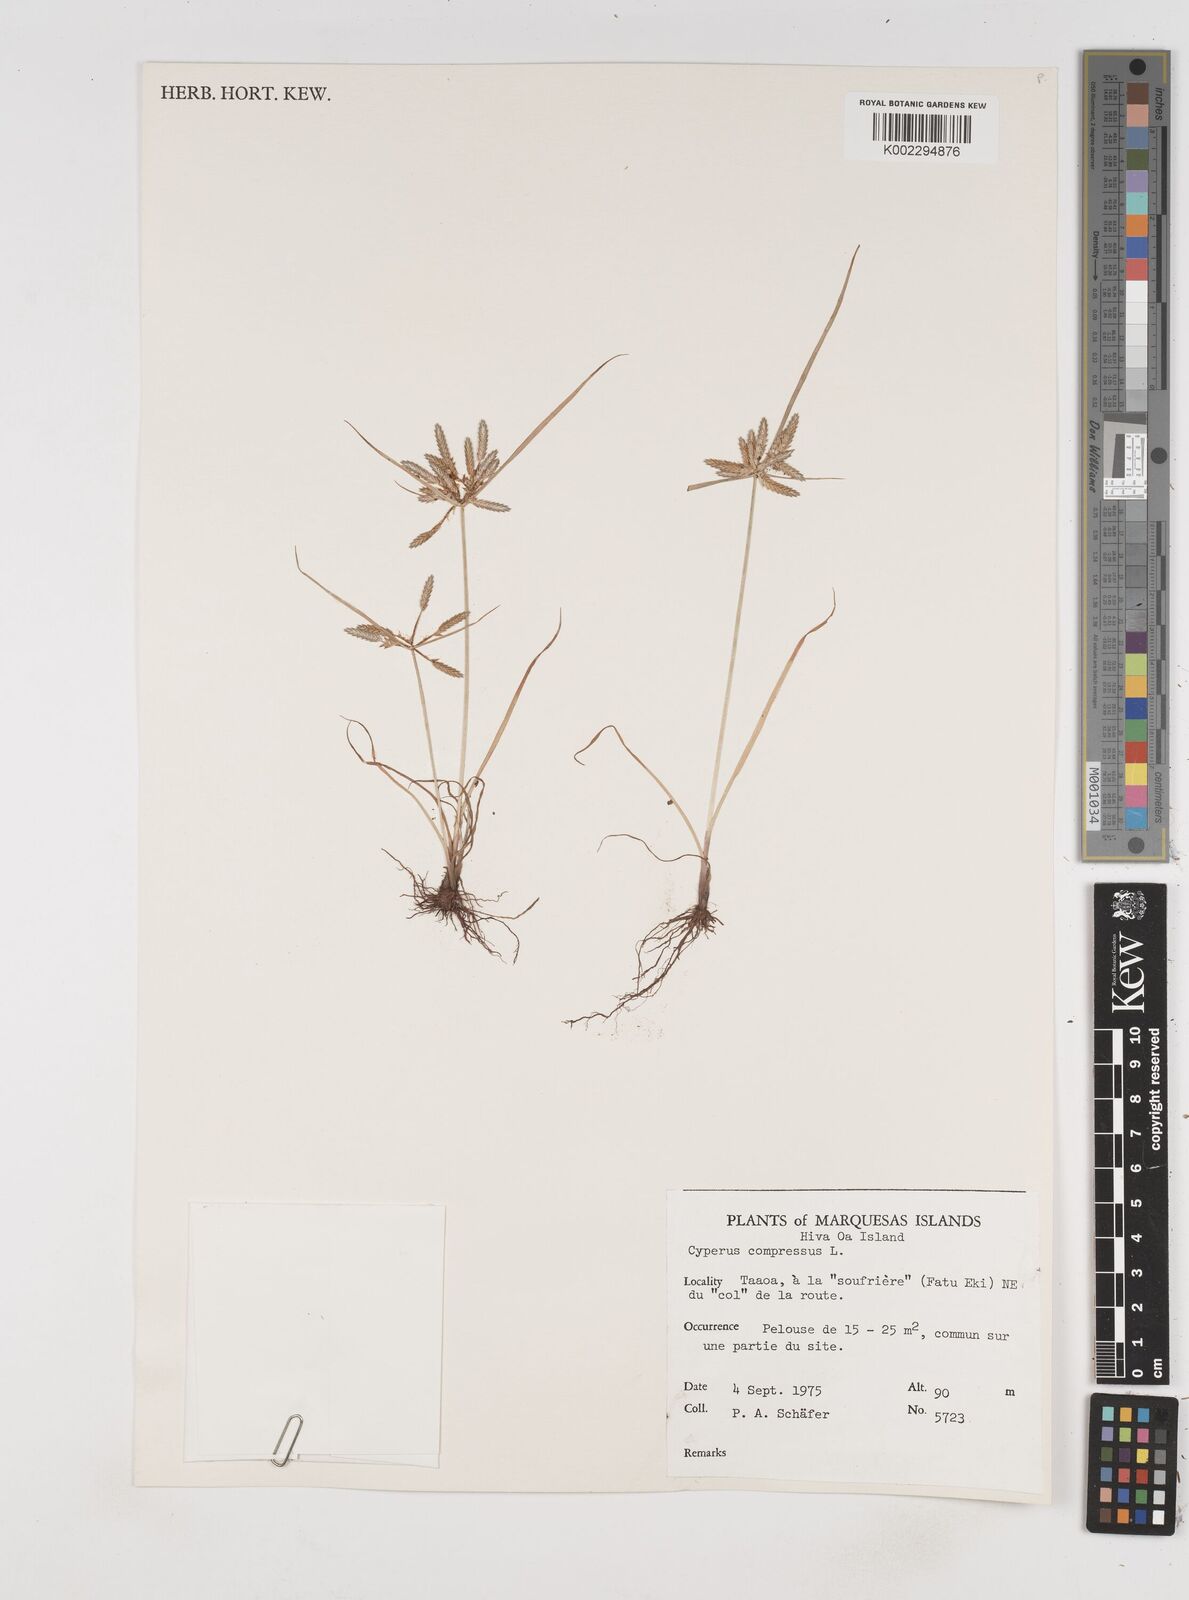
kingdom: Plantae
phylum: Tracheophyta
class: Liliopsida
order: Poales
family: Cyperaceae
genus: Cyperus
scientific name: Cyperus compressus
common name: Poorland flatsedge
